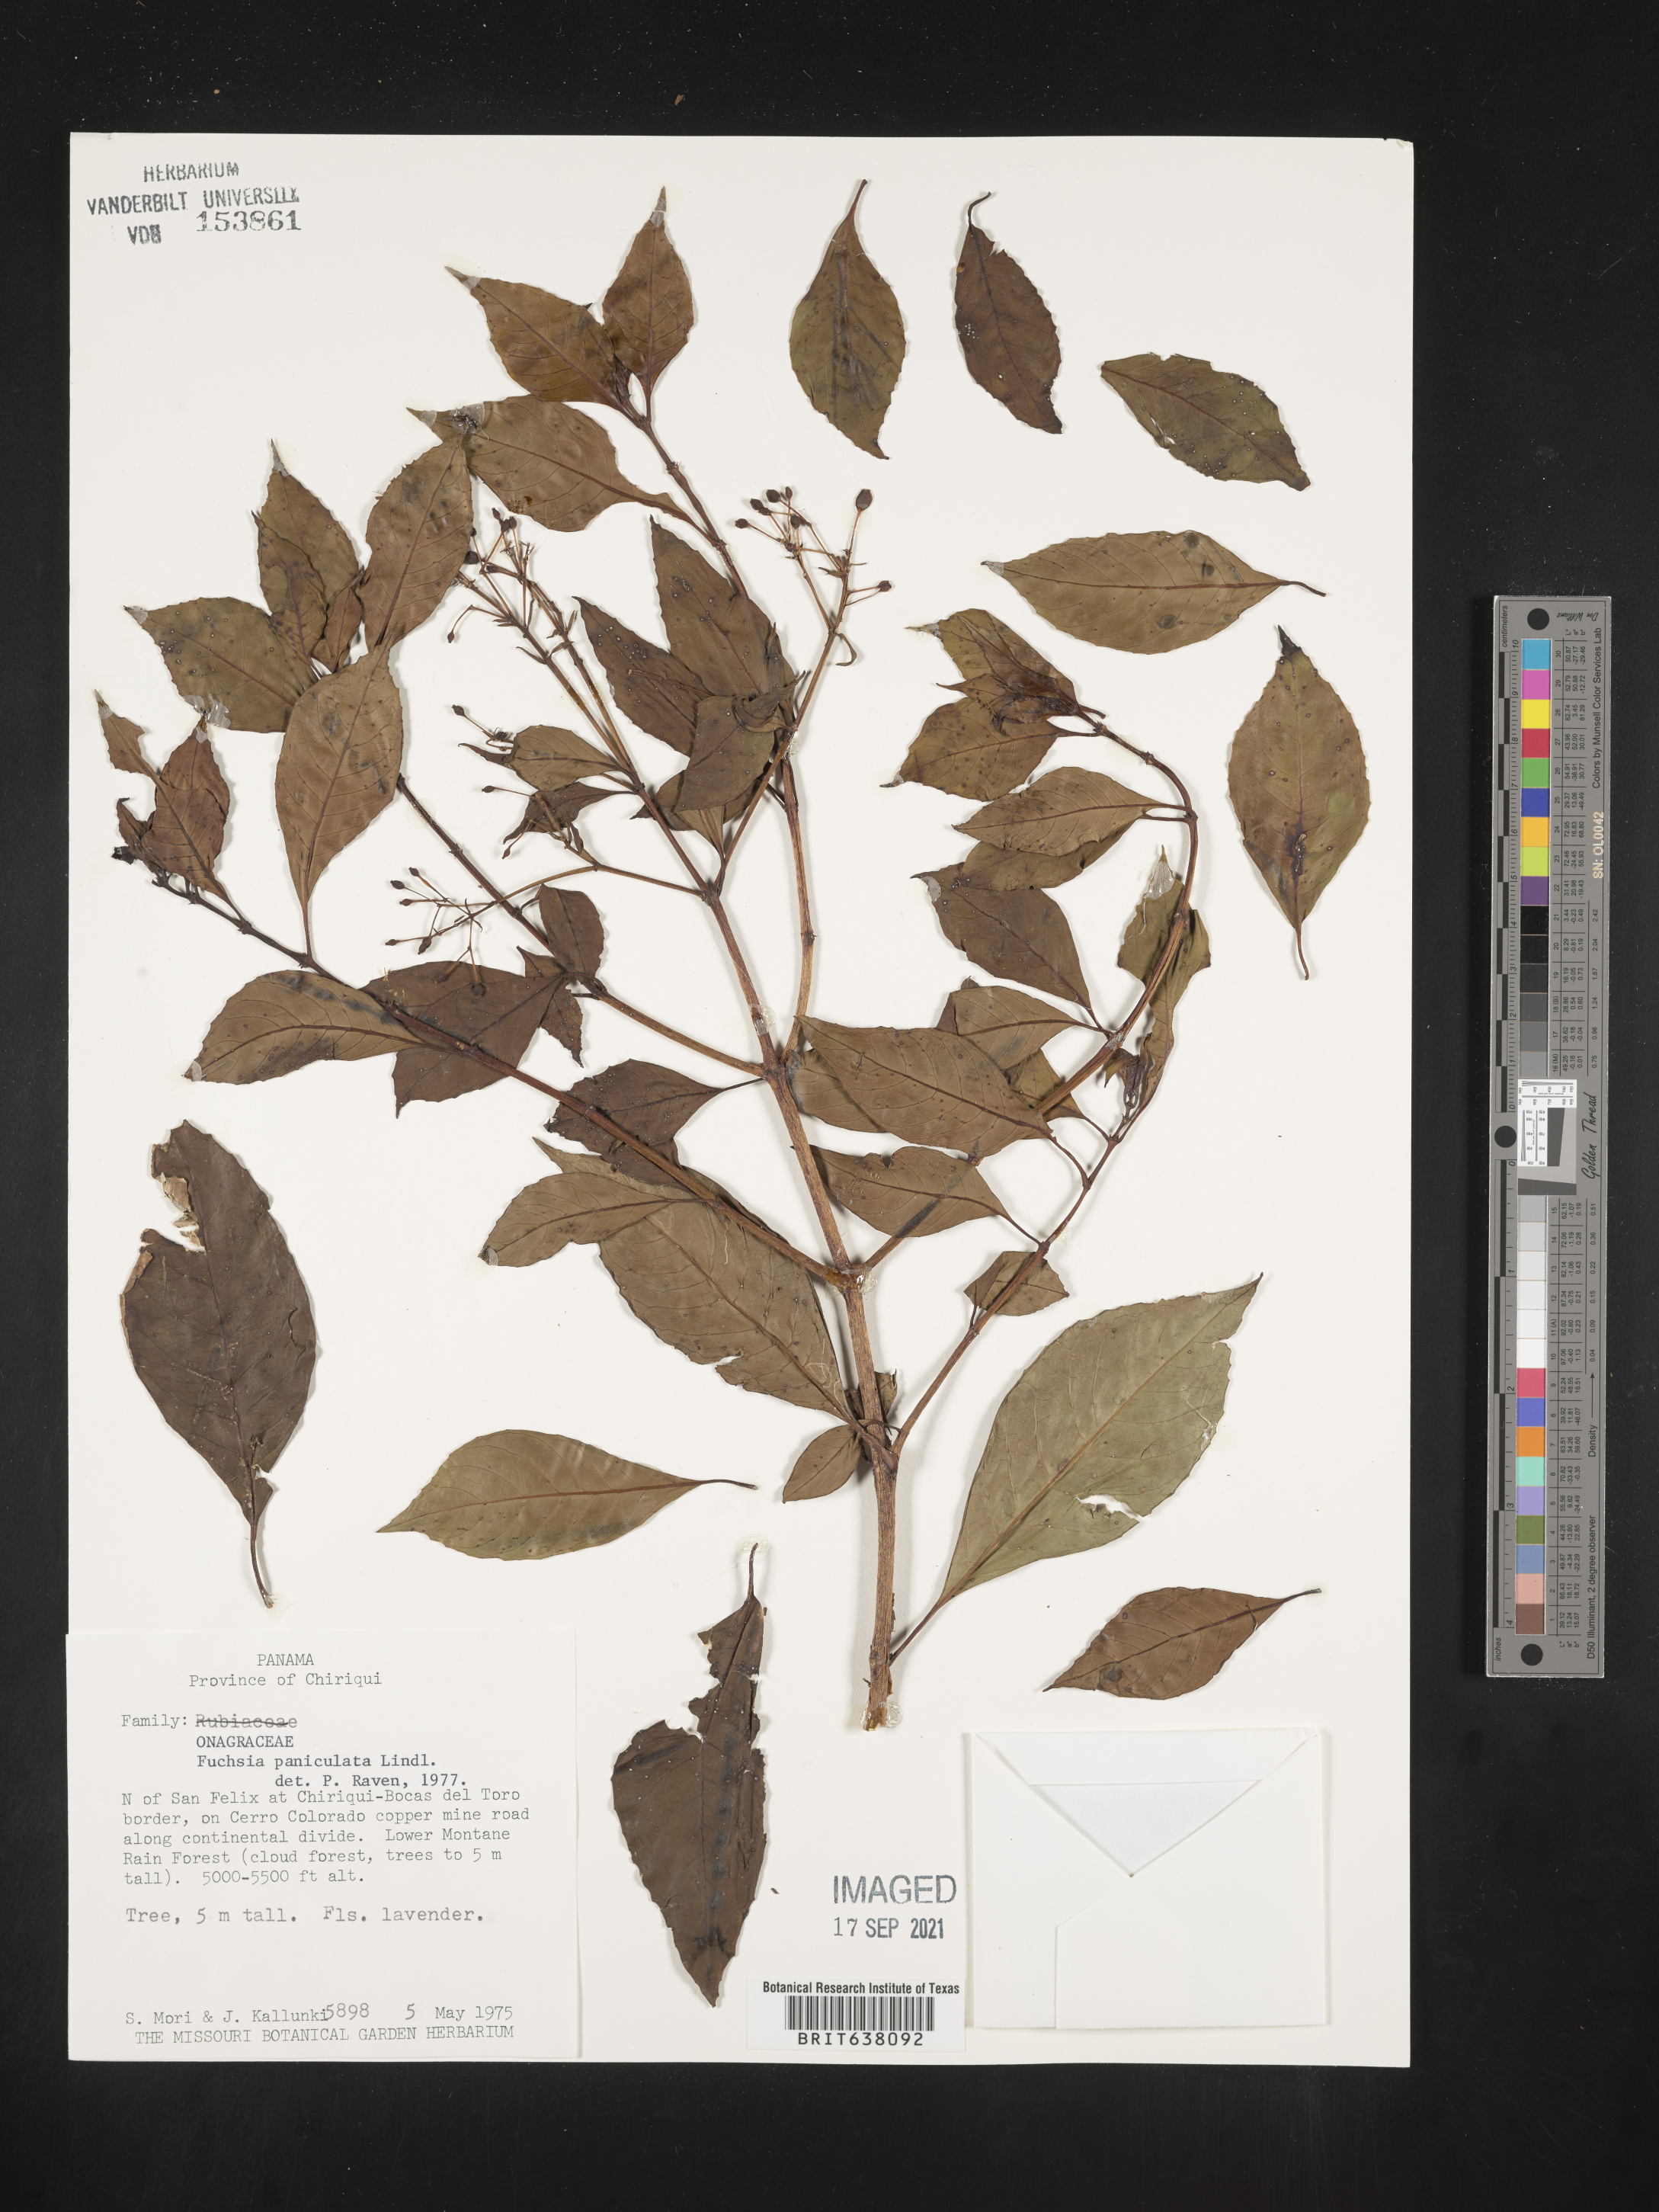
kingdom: Plantae
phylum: Tracheophyta
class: Magnoliopsida
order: Myrtales
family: Onagraceae
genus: Fuchsia
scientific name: Fuchsia
